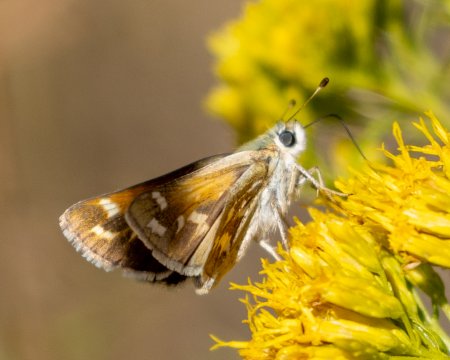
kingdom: Animalia
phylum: Arthropoda
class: Insecta
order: Lepidoptera
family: Hesperiidae
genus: Hesperia
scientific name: Hesperia comma
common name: Western Branded Skipper
